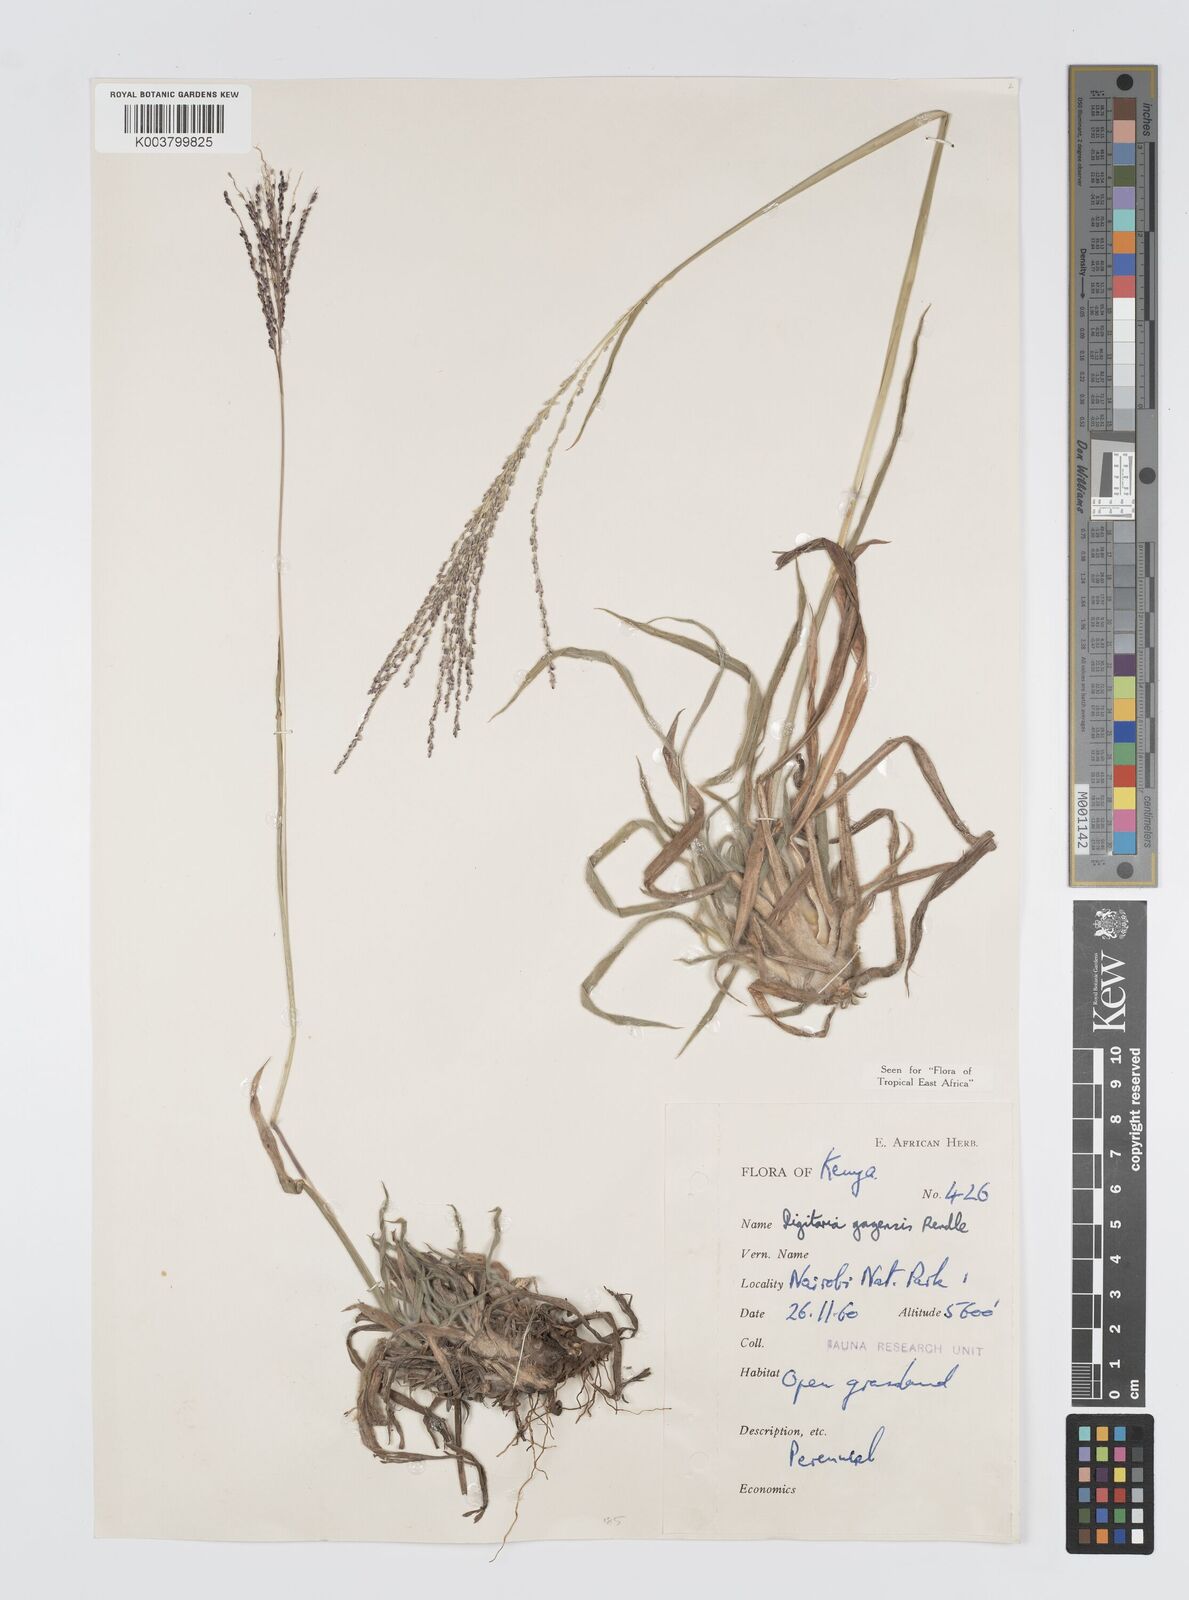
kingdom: Plantae
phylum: Tracheophyta
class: Liliopsida
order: Poales
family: Poaceae
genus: Digitaria
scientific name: Digitaria gazensis
